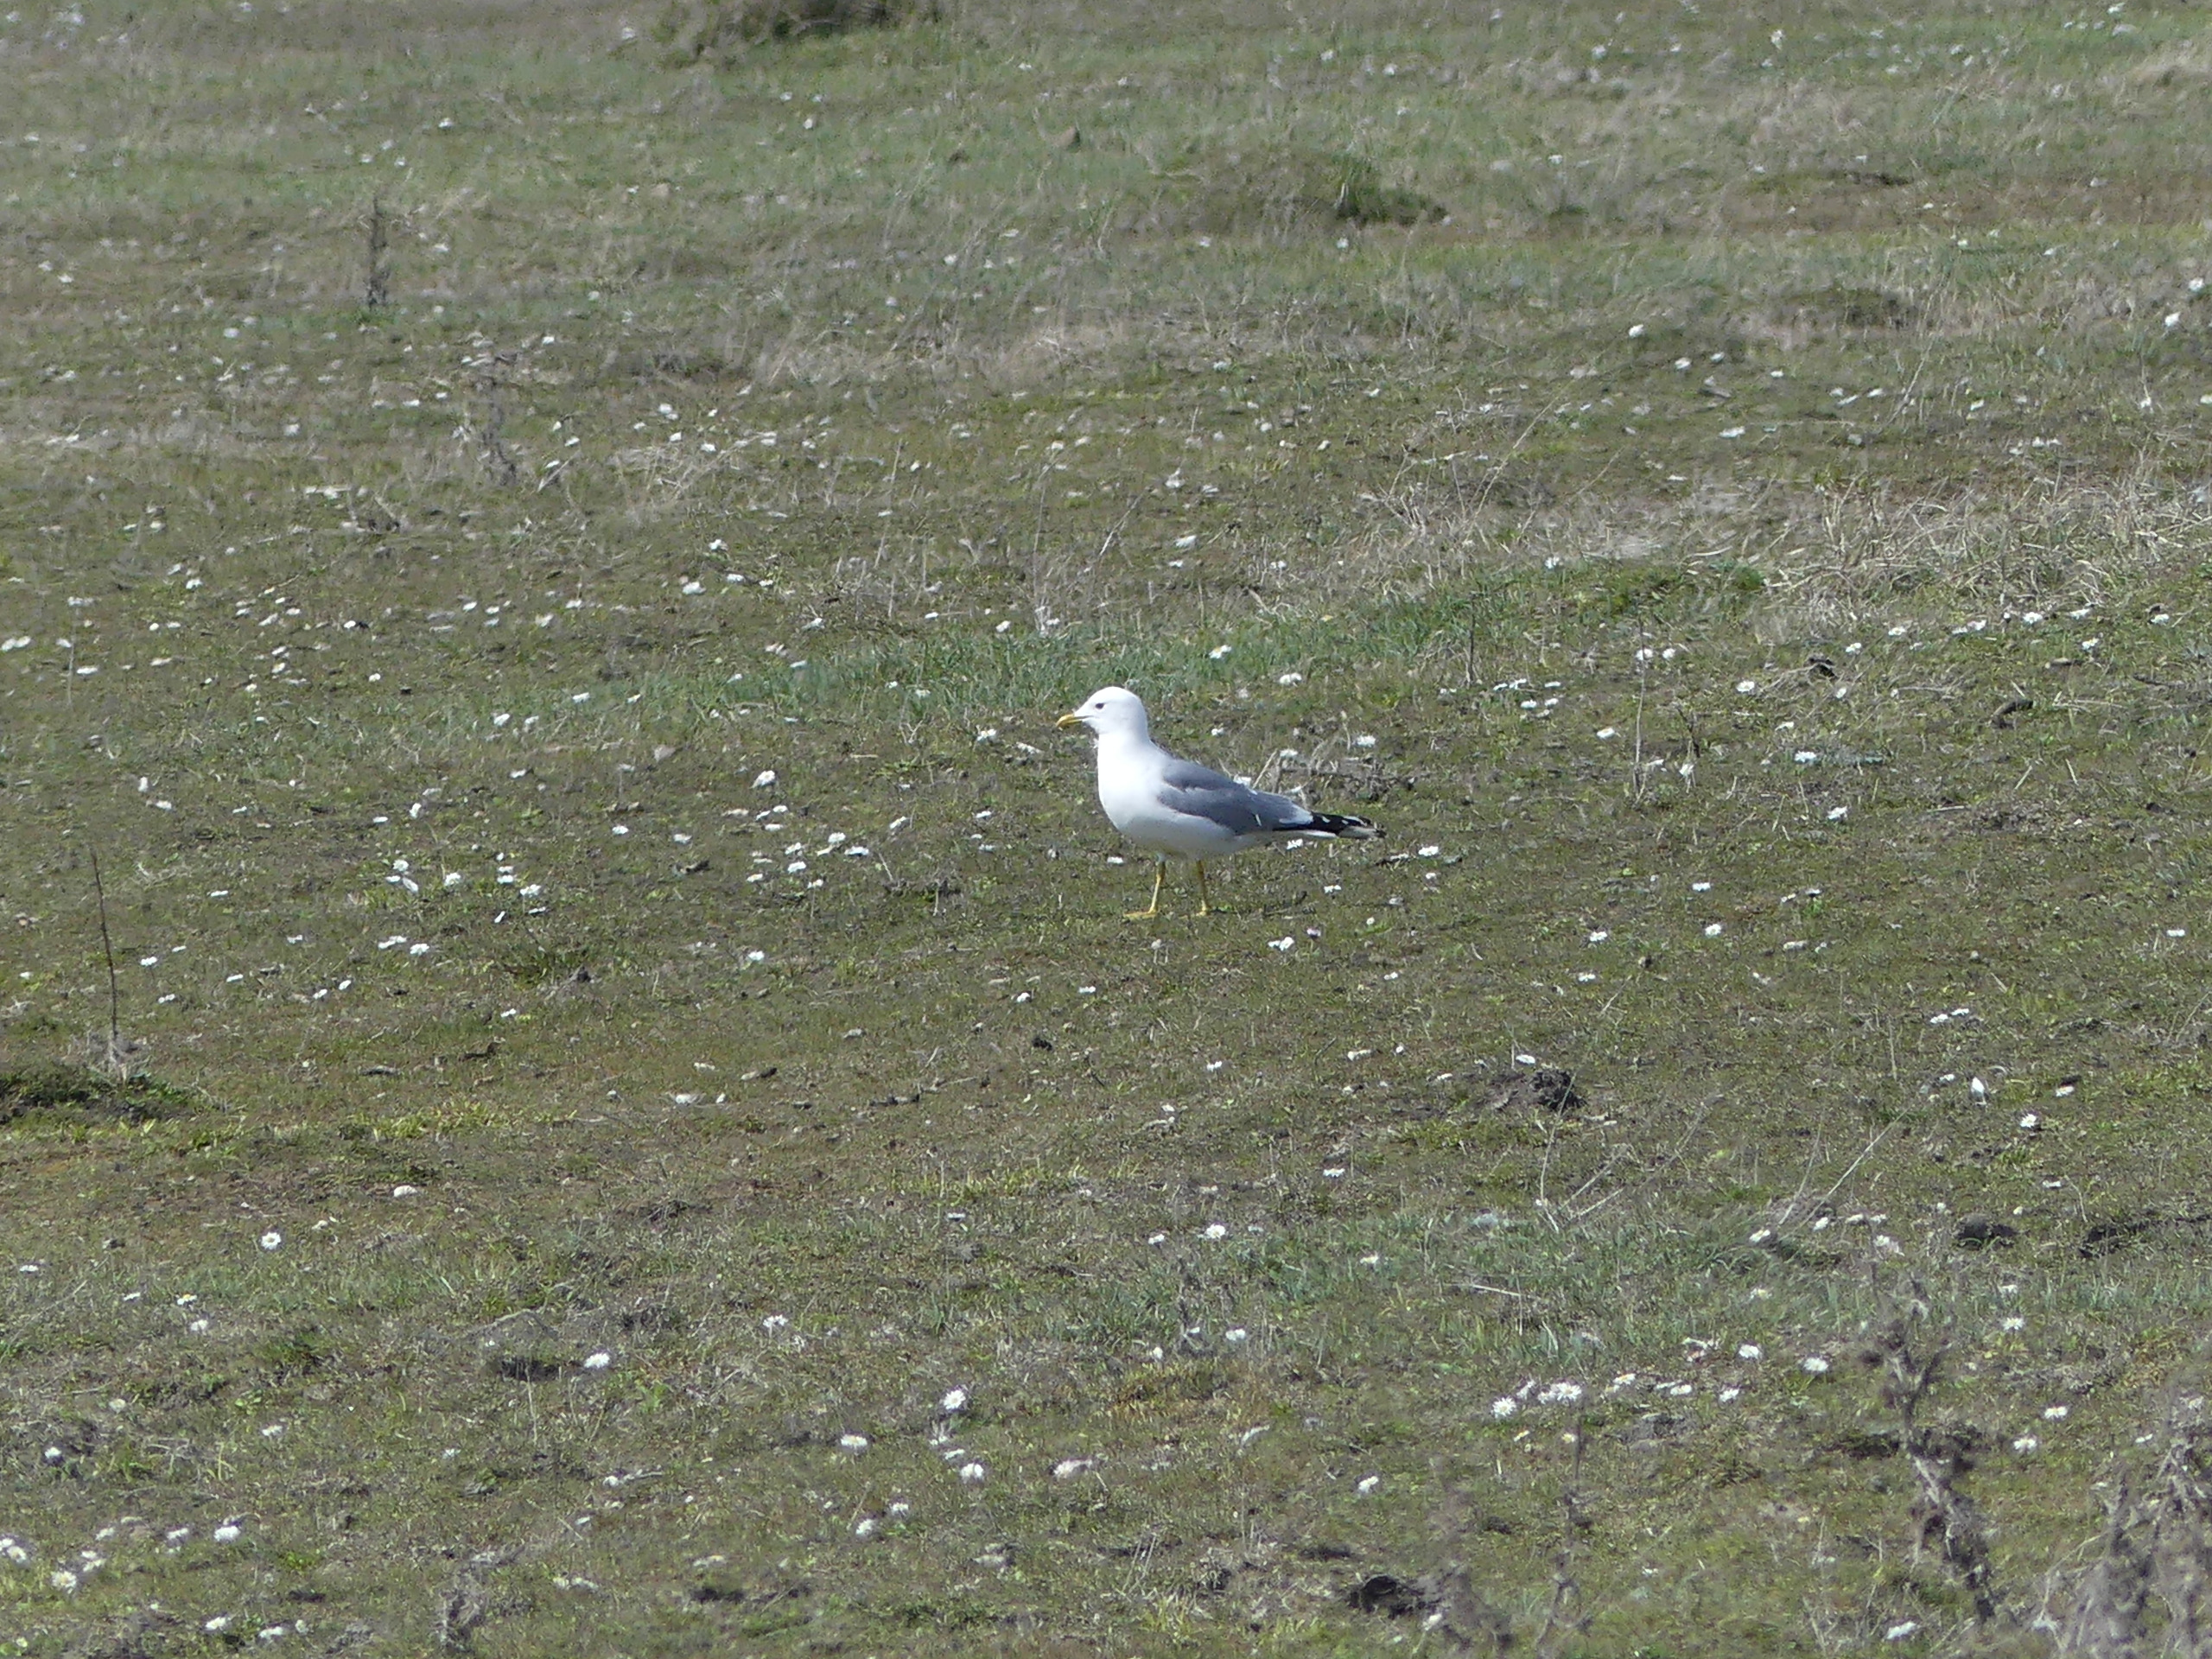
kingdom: Animalia
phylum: Chordata
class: Aves
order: Charadriiformes
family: Laridae
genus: Larus
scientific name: Larus canus
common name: Stormmåge
